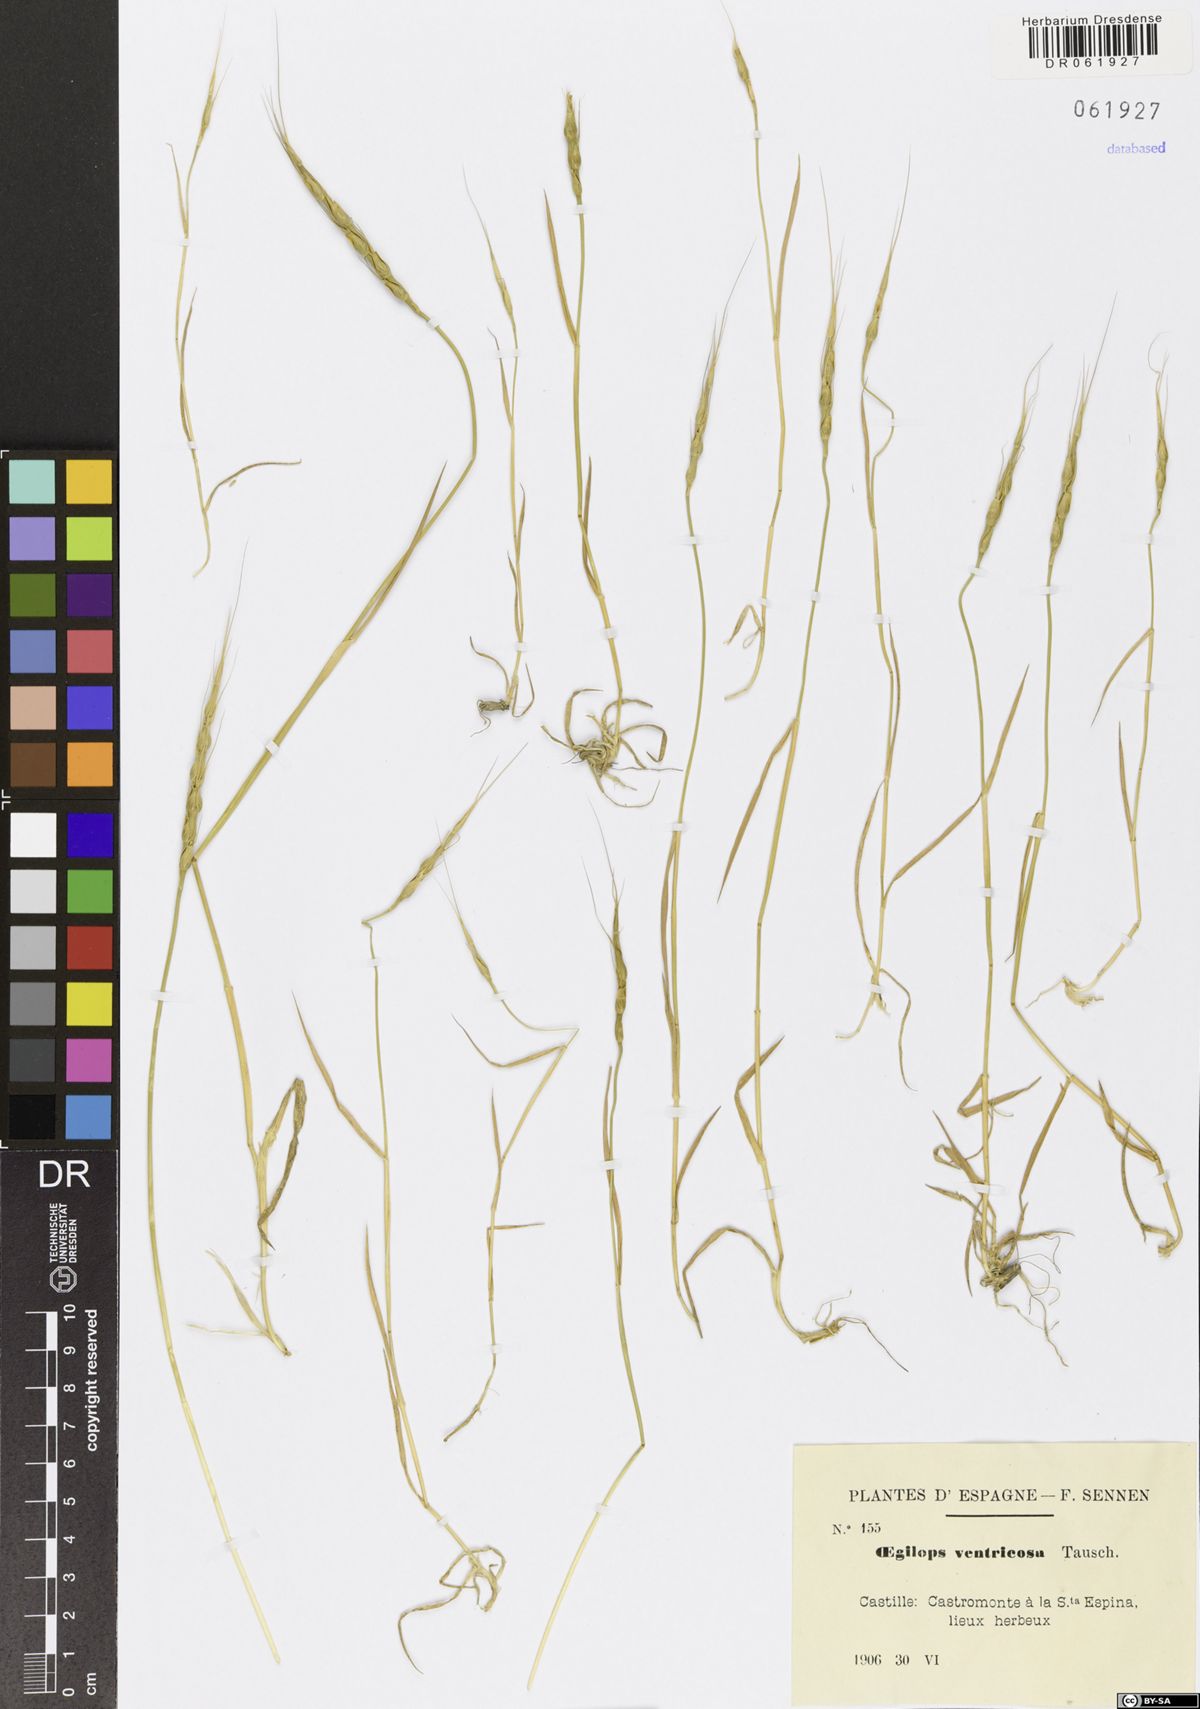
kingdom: Plantae
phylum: Tracheophyta
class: Liliopsida
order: Poales
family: Poaceae
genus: Aegilops
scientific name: Aegilops ventricosa
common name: Swollen goat grass
